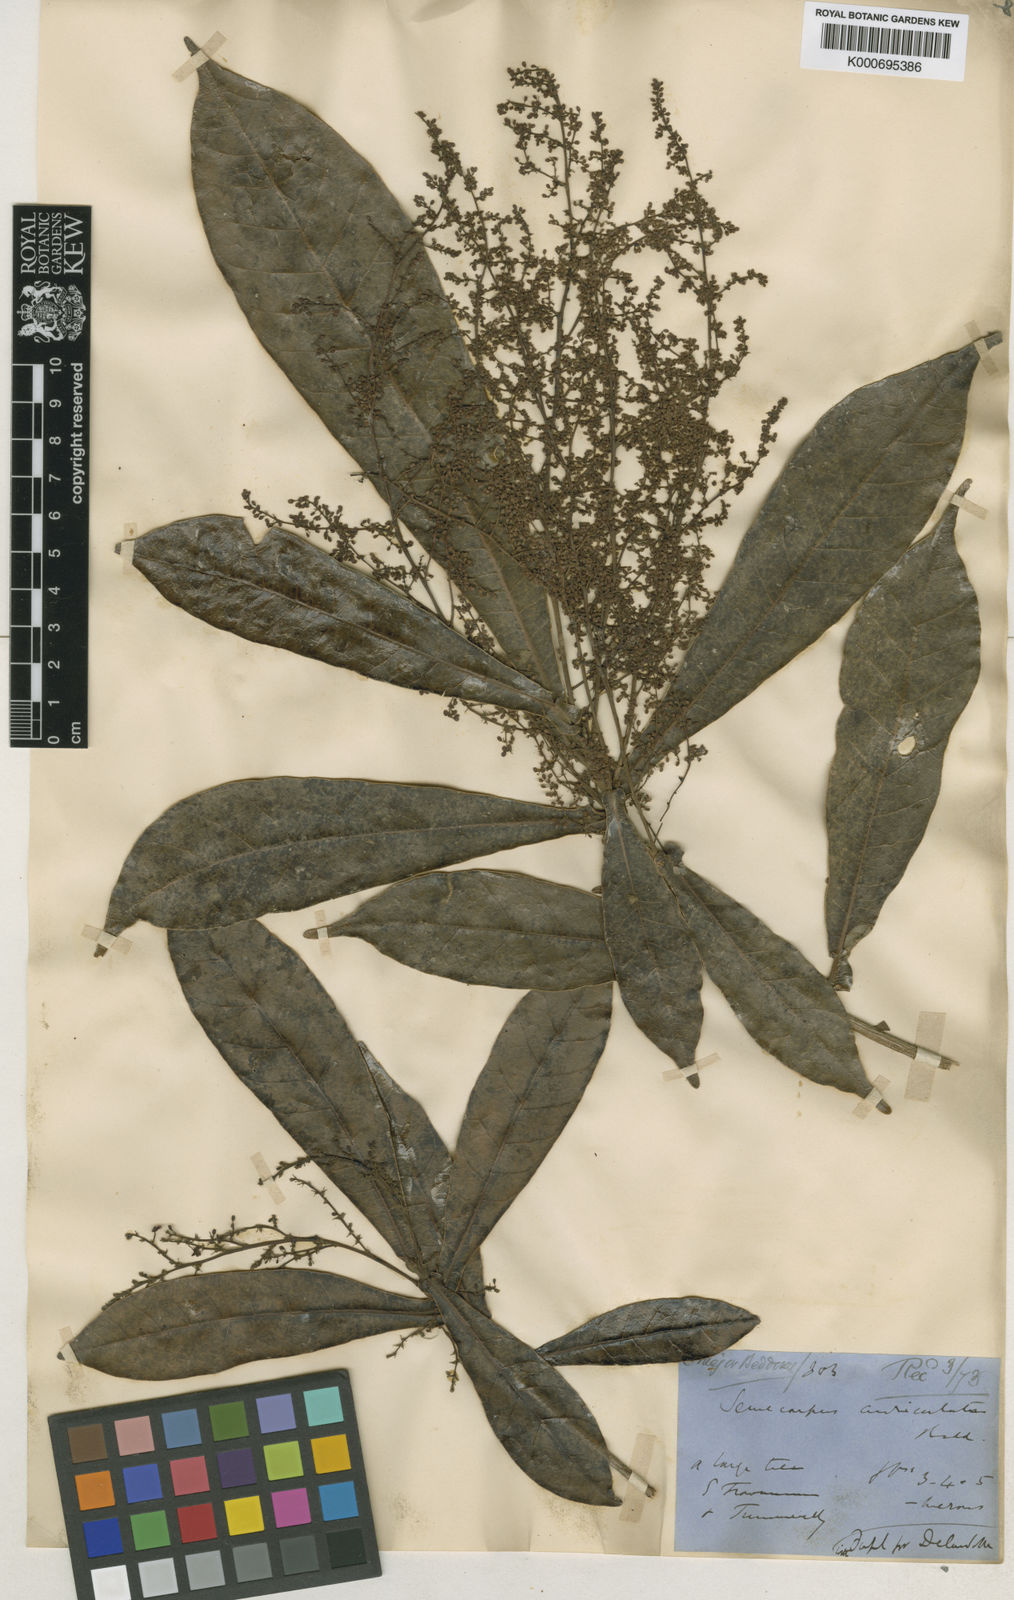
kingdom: Plantae
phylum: Tracheophyta
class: Magnoliopsida
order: Sapindales
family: Anacardiaceae
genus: Semecarpus
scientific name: Semecarpus auriculatus
